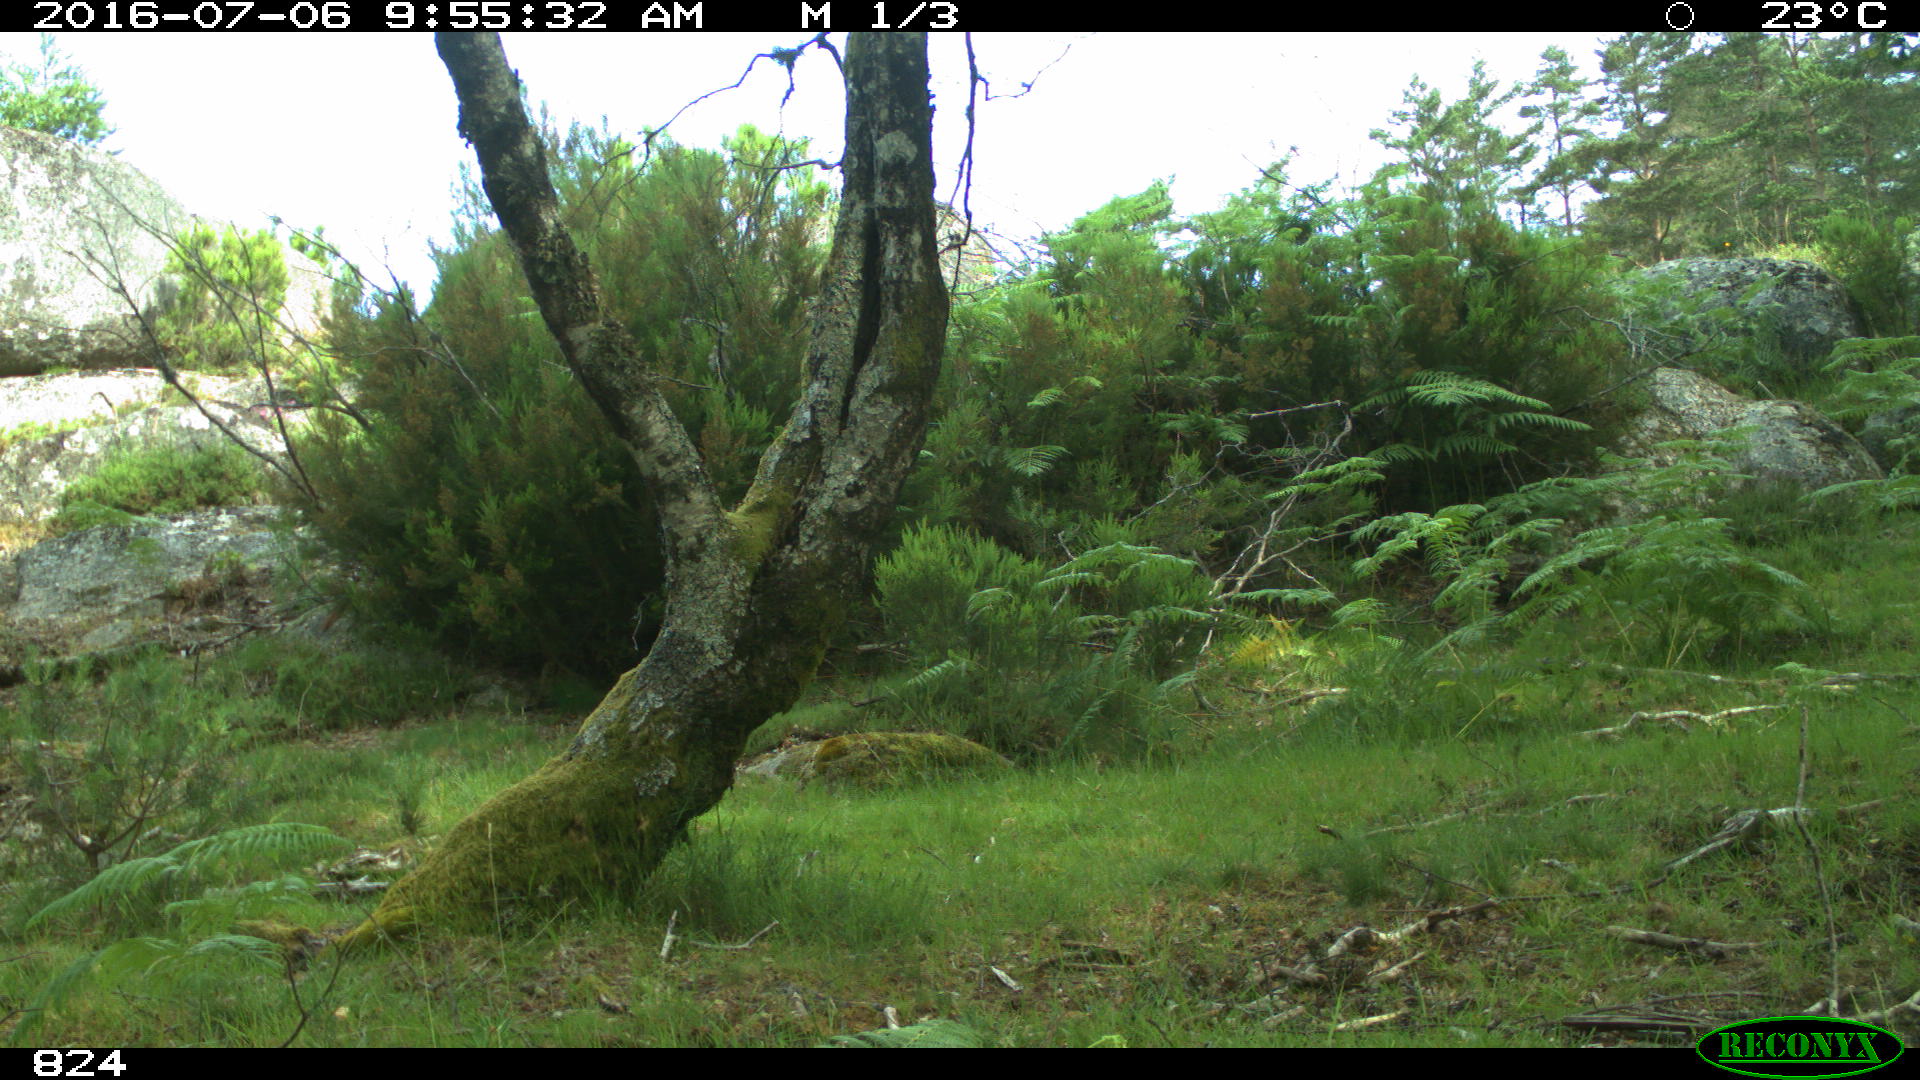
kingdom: Animalia
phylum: Chordata
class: Mammalia
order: Artiodactyla
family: Bovidae
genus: Bos
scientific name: Bos taurus
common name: Domesticated cattle
